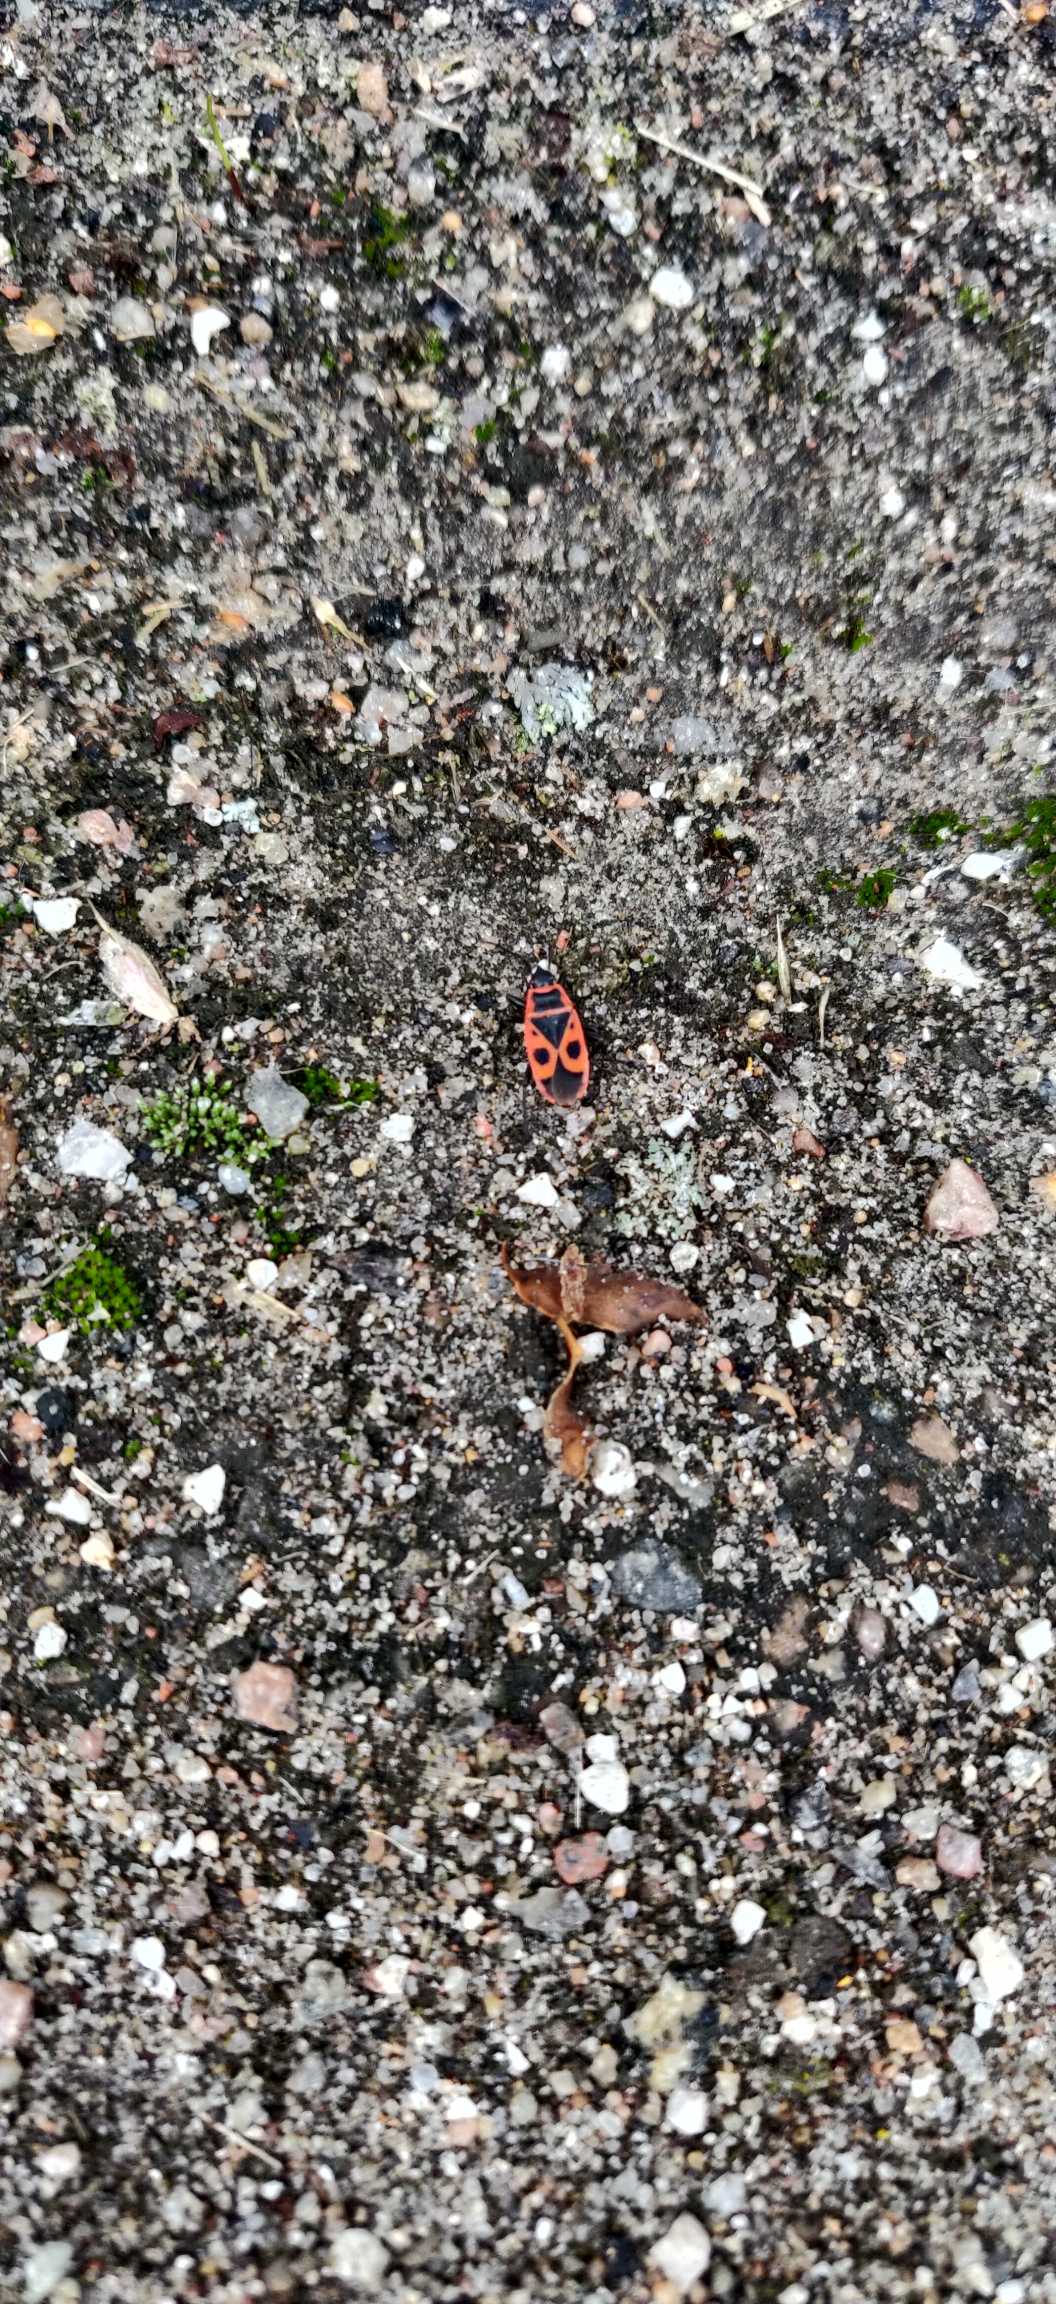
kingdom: Animalia
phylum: Arthropoda
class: Insecta
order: Hemiptera
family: Pyrrhocoridae
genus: Pyrrhocoris
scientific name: Pyrrhocoris apterus
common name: Ildtæge
